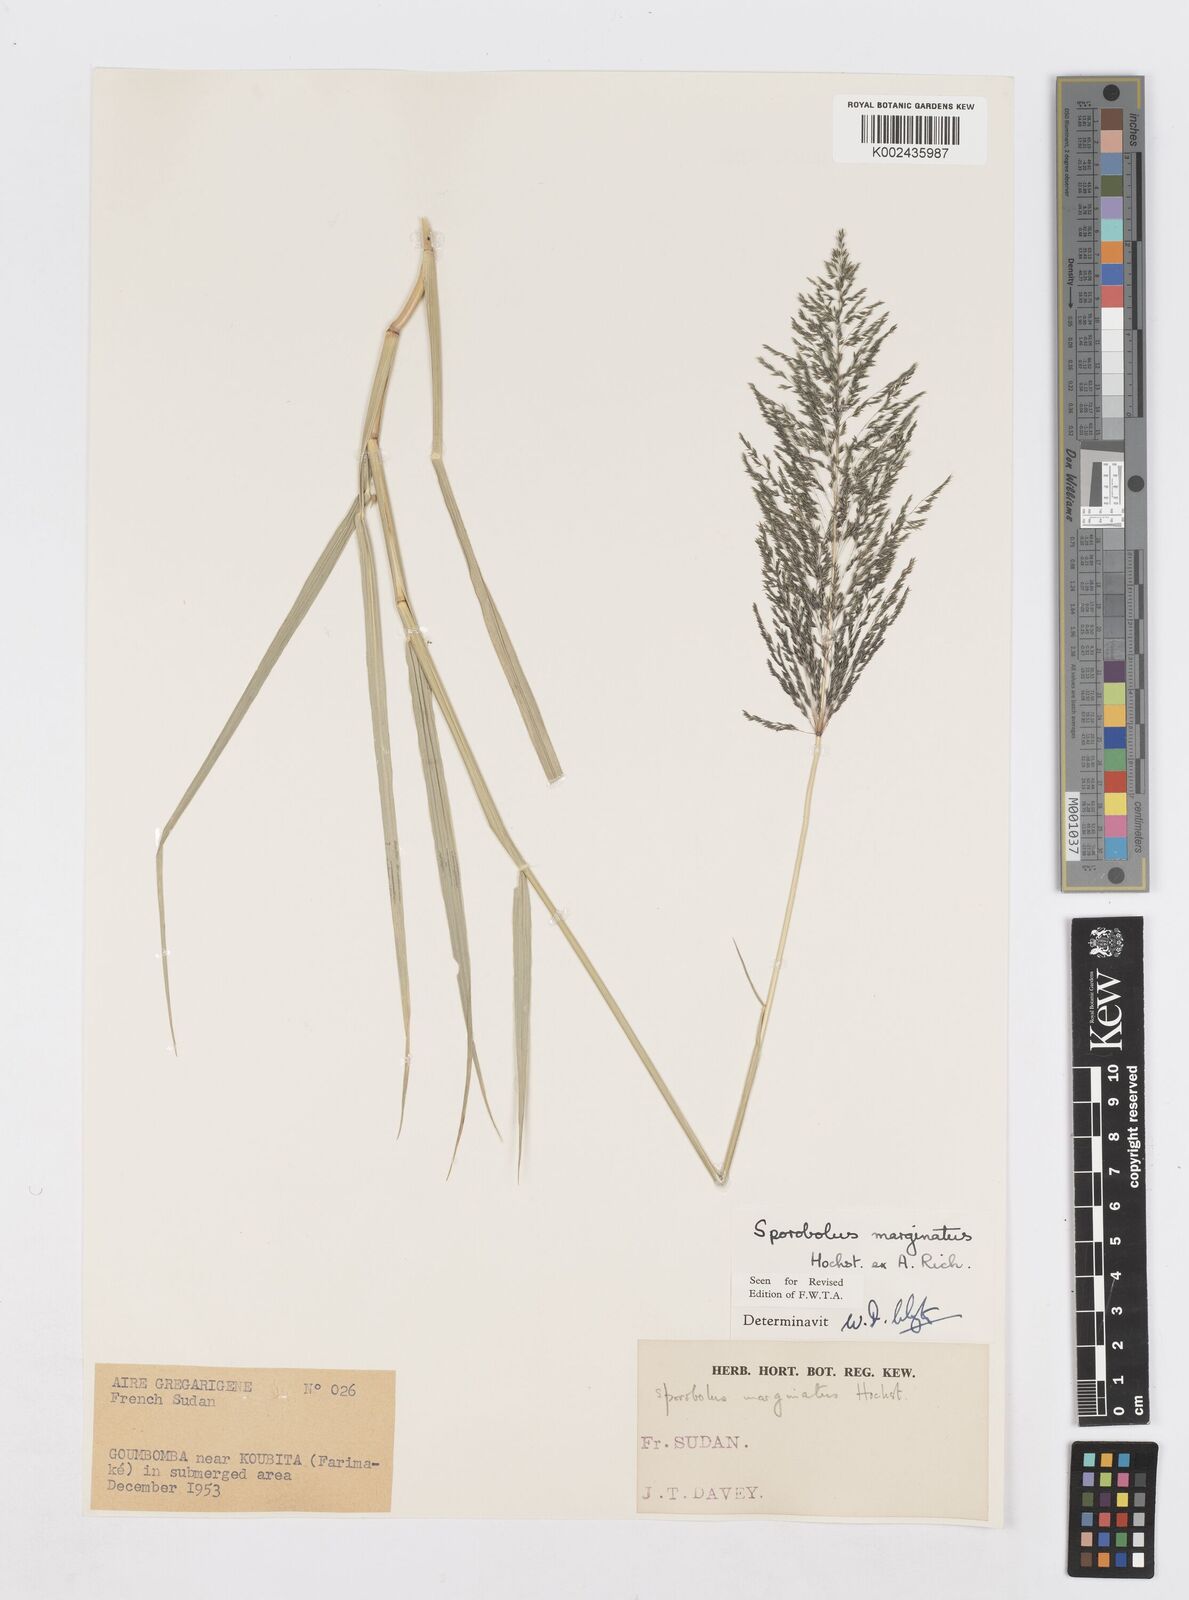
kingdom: Plantae
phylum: Tracheophyta
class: Liliopsida
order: Poales
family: Poaceae
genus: Sporobolus
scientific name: Sporobolus ioclados
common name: Pan dropseed
